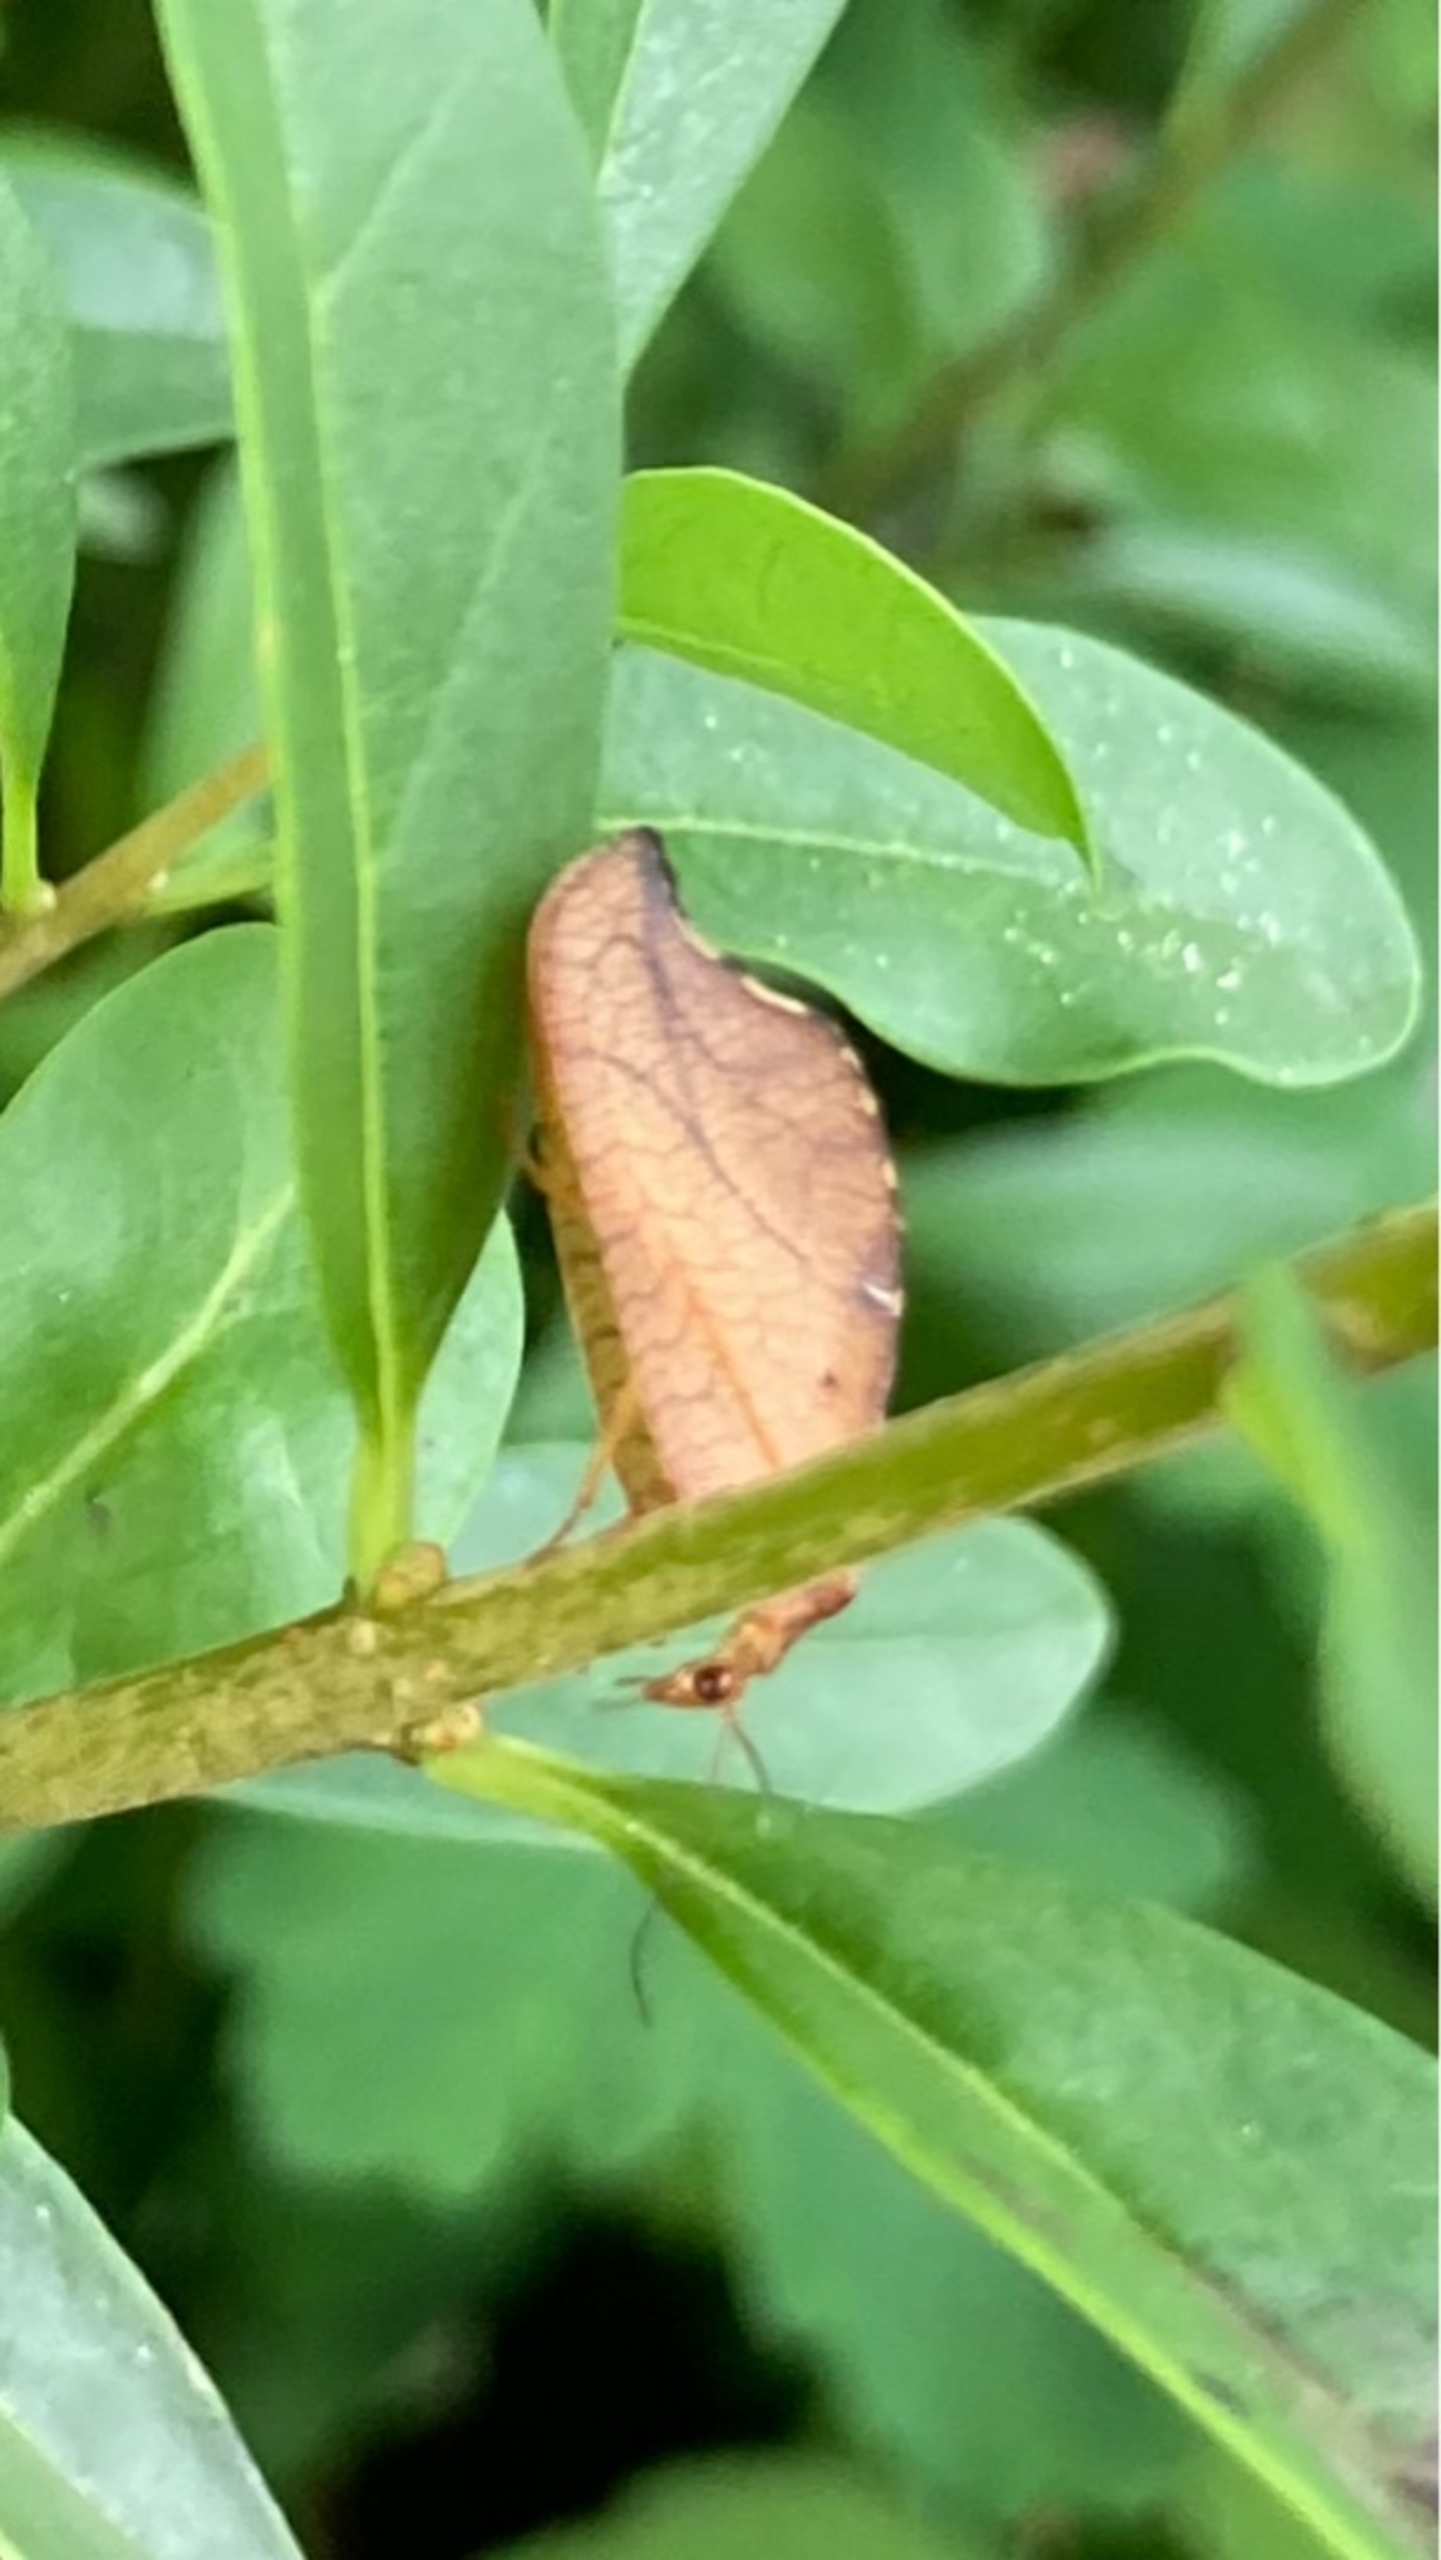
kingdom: Animalia
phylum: Arthropoda
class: Insecta
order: Neuroptera
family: Hemerobiidae
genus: Drepanepteryx
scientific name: Drepanepteryx phalaenoides
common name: Det visne blad
